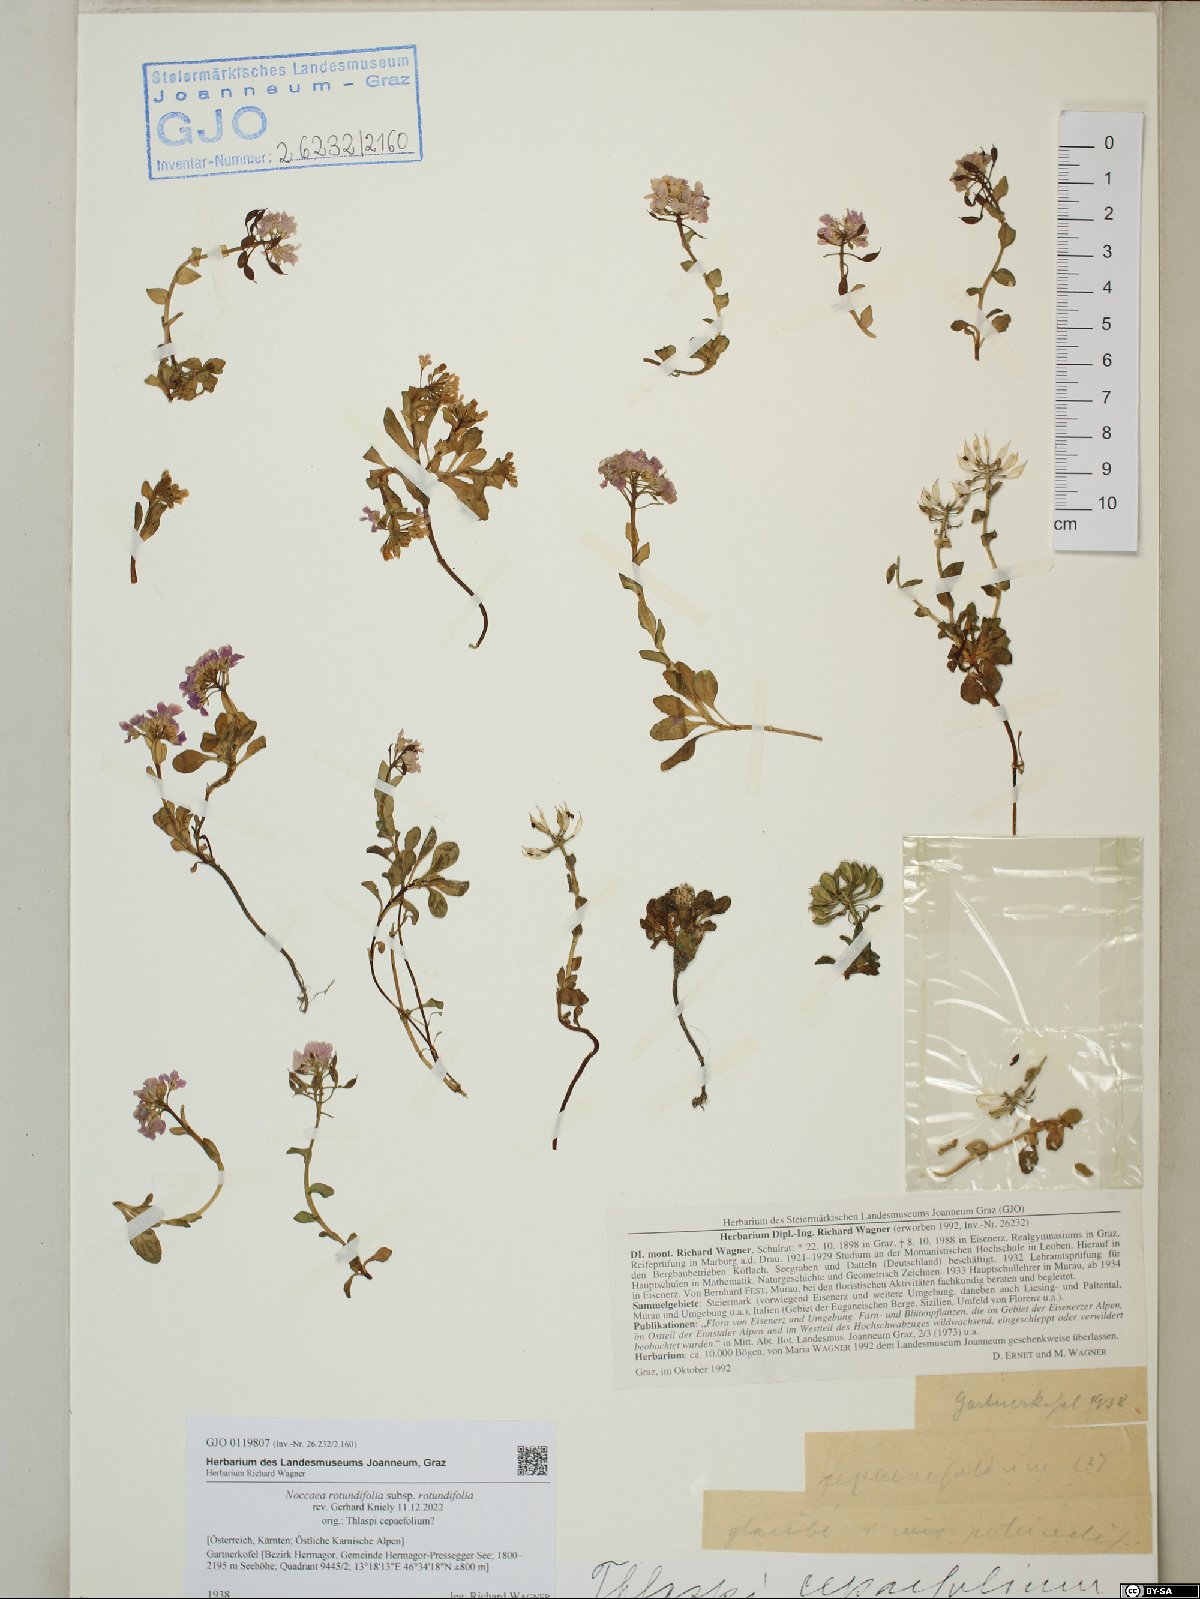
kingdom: Plantae
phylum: Tracheophyta
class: Magnoliopsida
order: Brassicales
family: Brassicaceae
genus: Noccaea
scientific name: Noccaea rotundifolia
